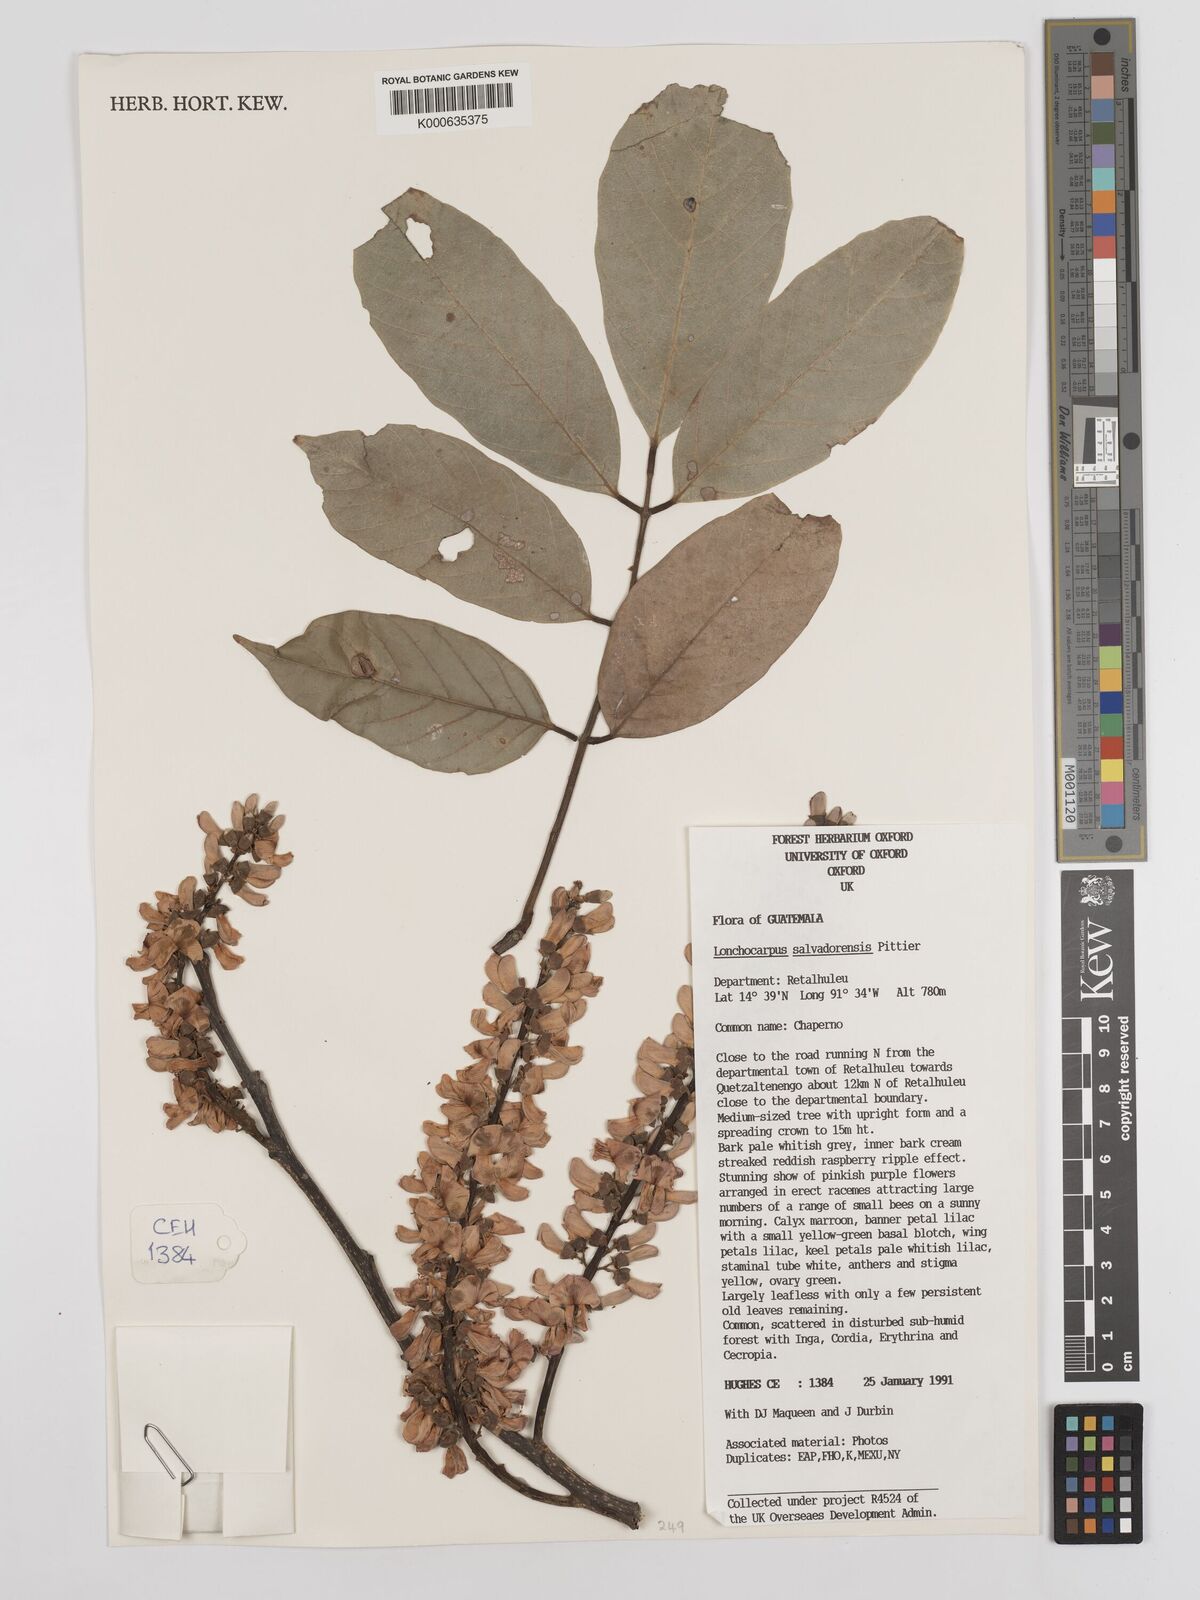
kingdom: Plantae
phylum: Tracheophyta
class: Magnoliopsida
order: Fabales
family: Fabaceae
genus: Lonchocarpus
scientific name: Lonchocarpus salvadorensis
